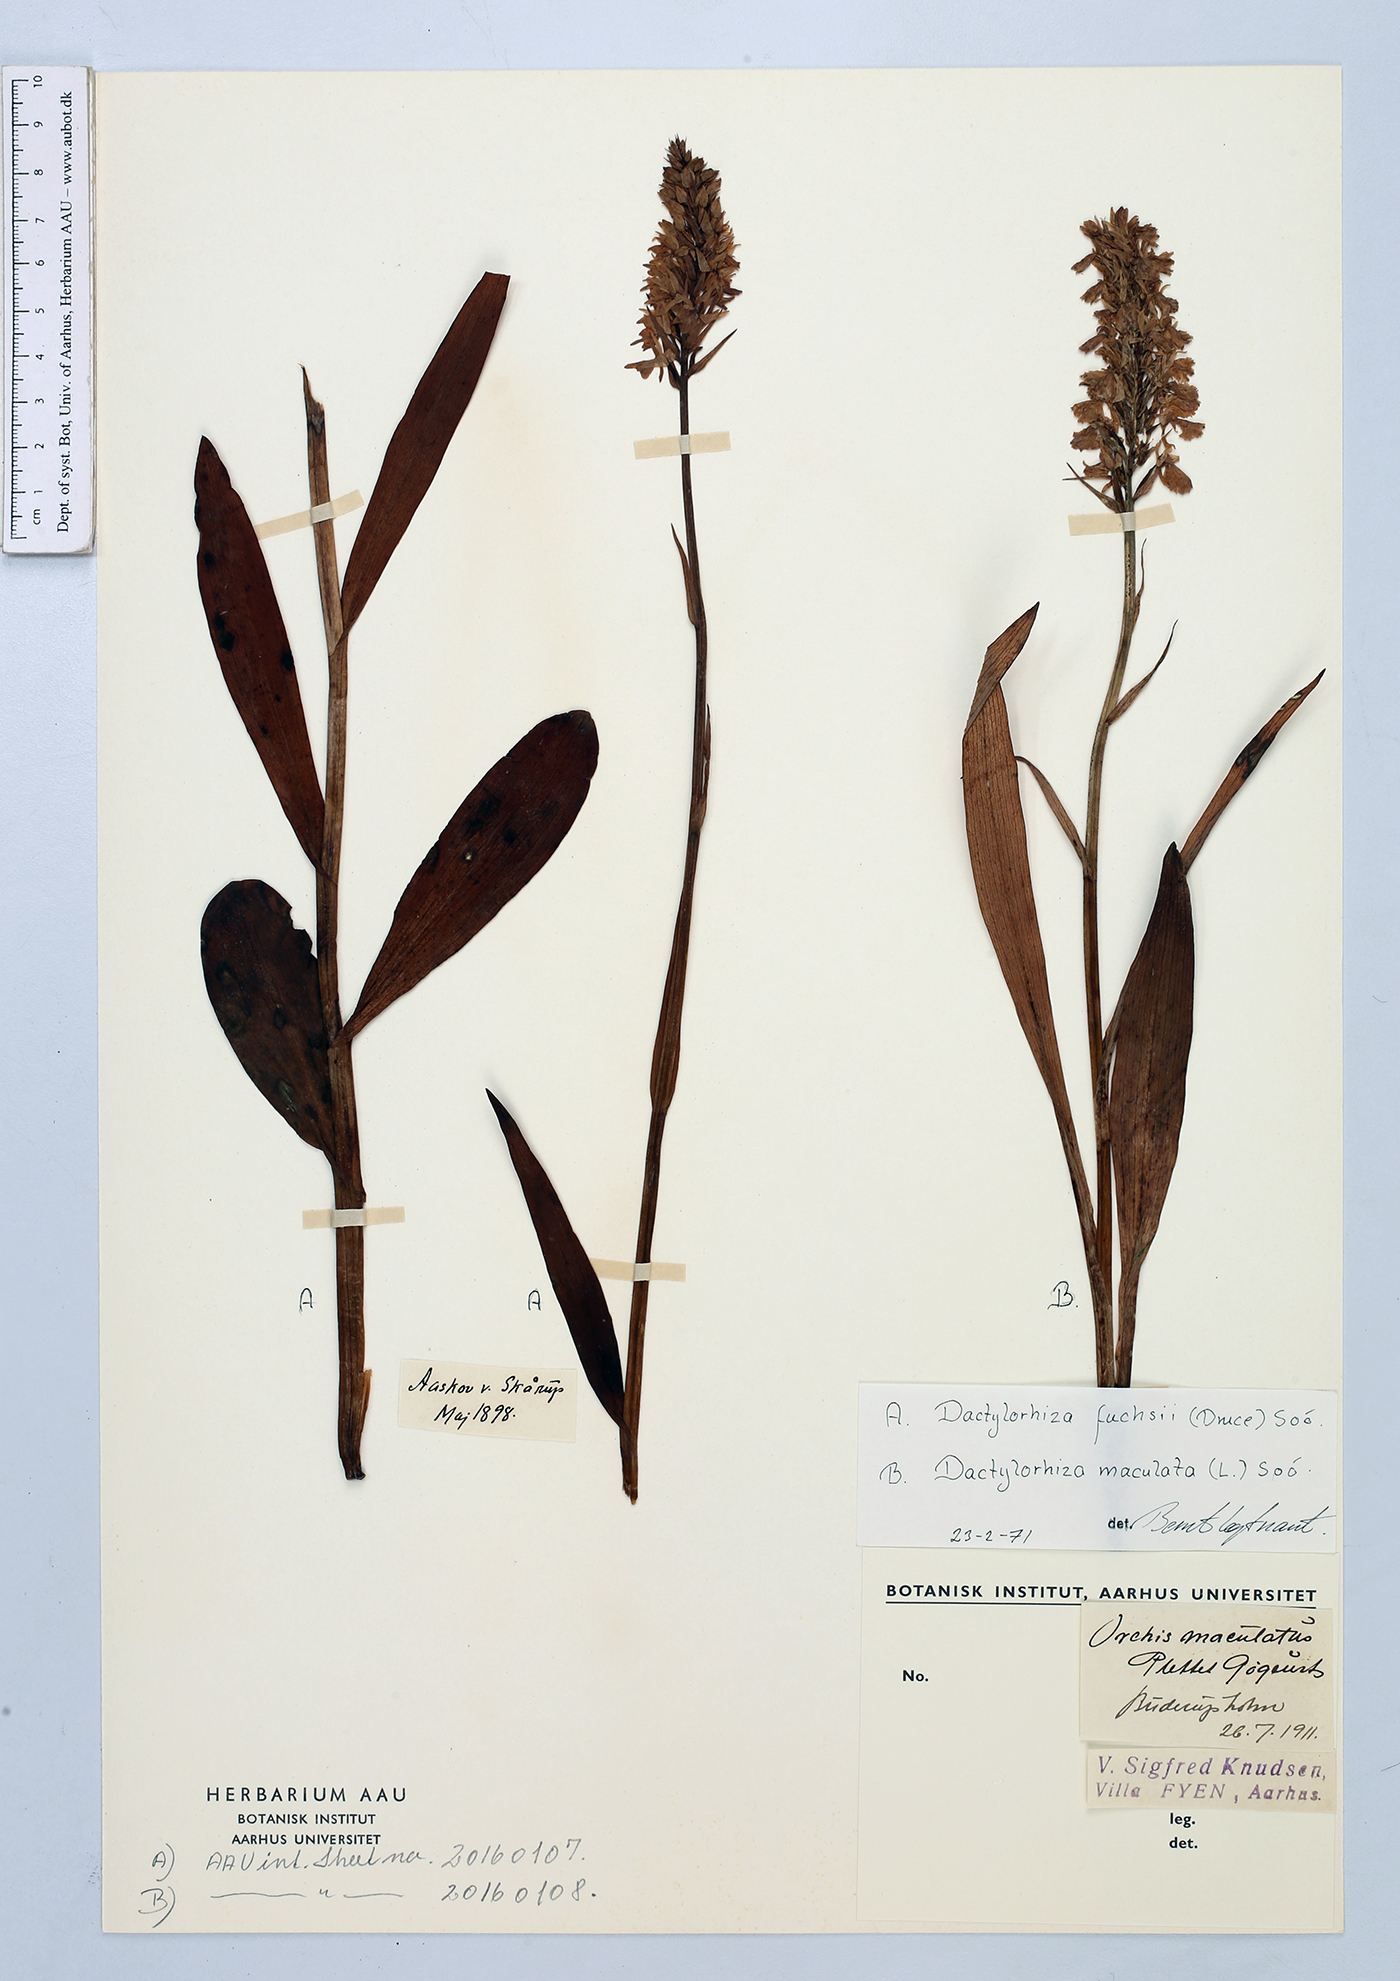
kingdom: Plantae
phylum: Tracheophyta
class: Liliopsida
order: Asparagales
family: Orchidaceae
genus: Dactylorhiza
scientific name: Dactylorhiza maculata
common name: Heath spotted-orchid
